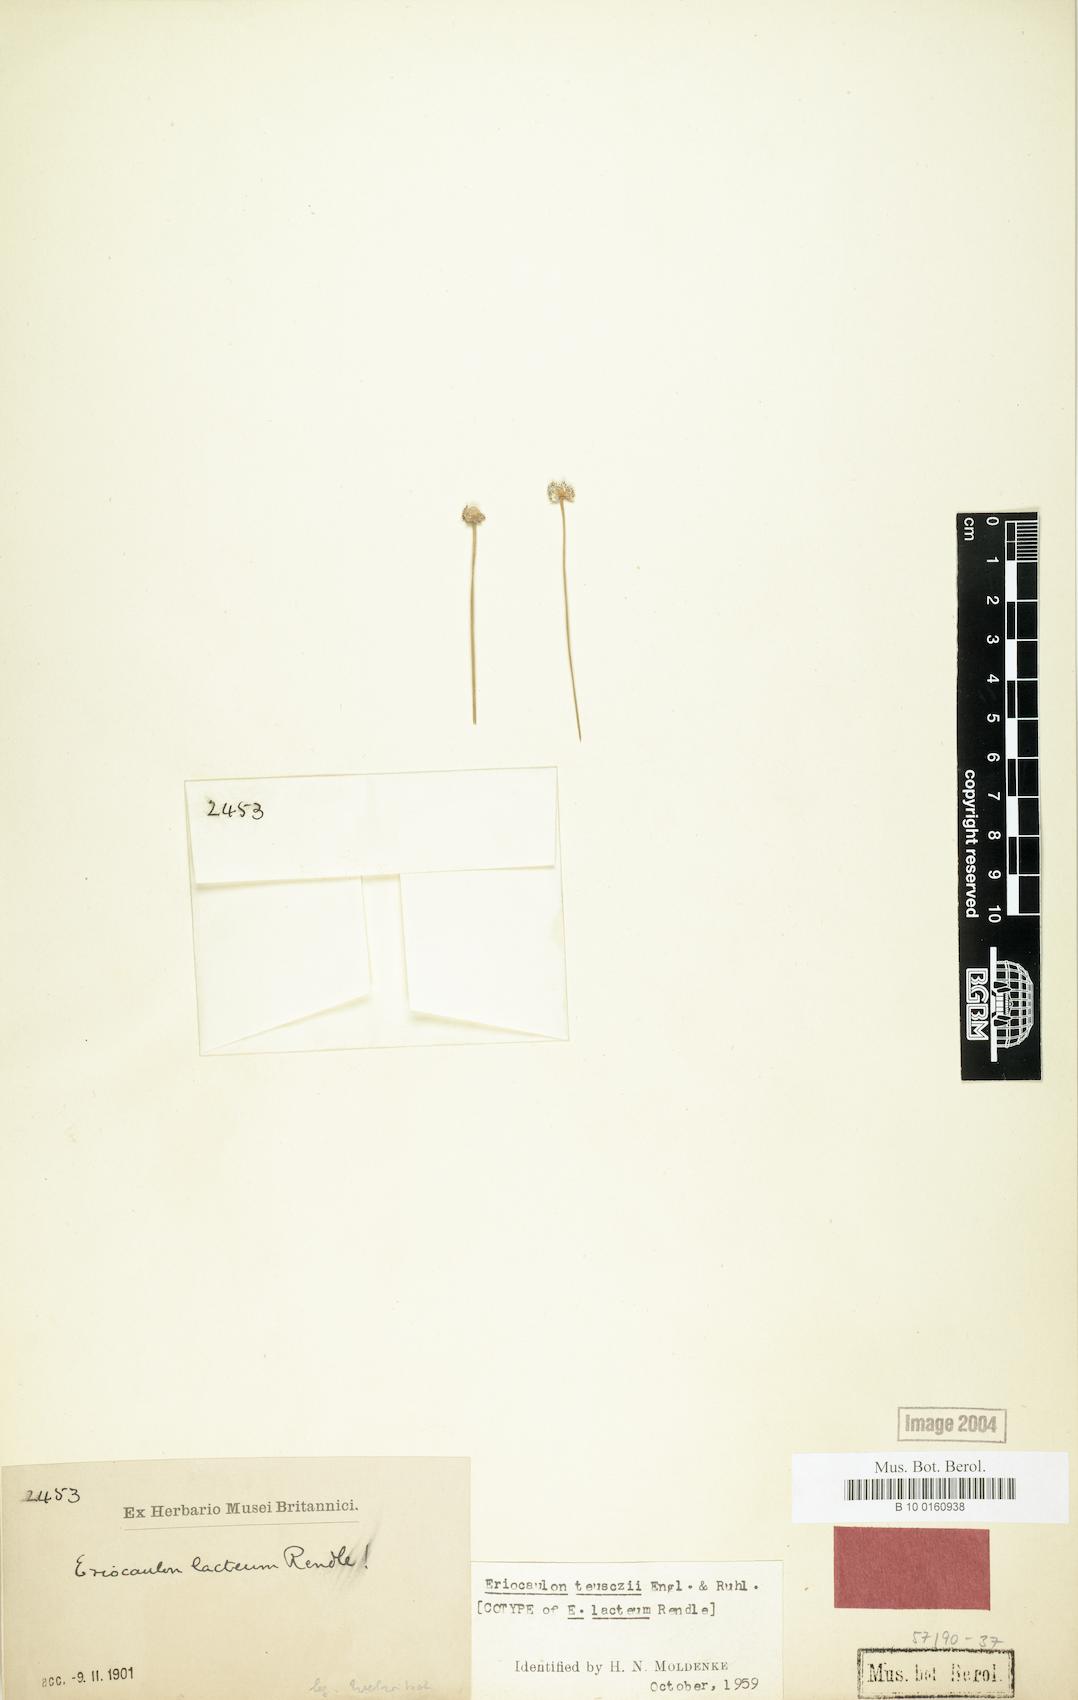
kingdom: Plantae
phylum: Tracheophyta
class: Liliopsida
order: Poales
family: Eriocaulaceae
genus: Eriocaulon
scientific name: Eriocaulon teusczii
